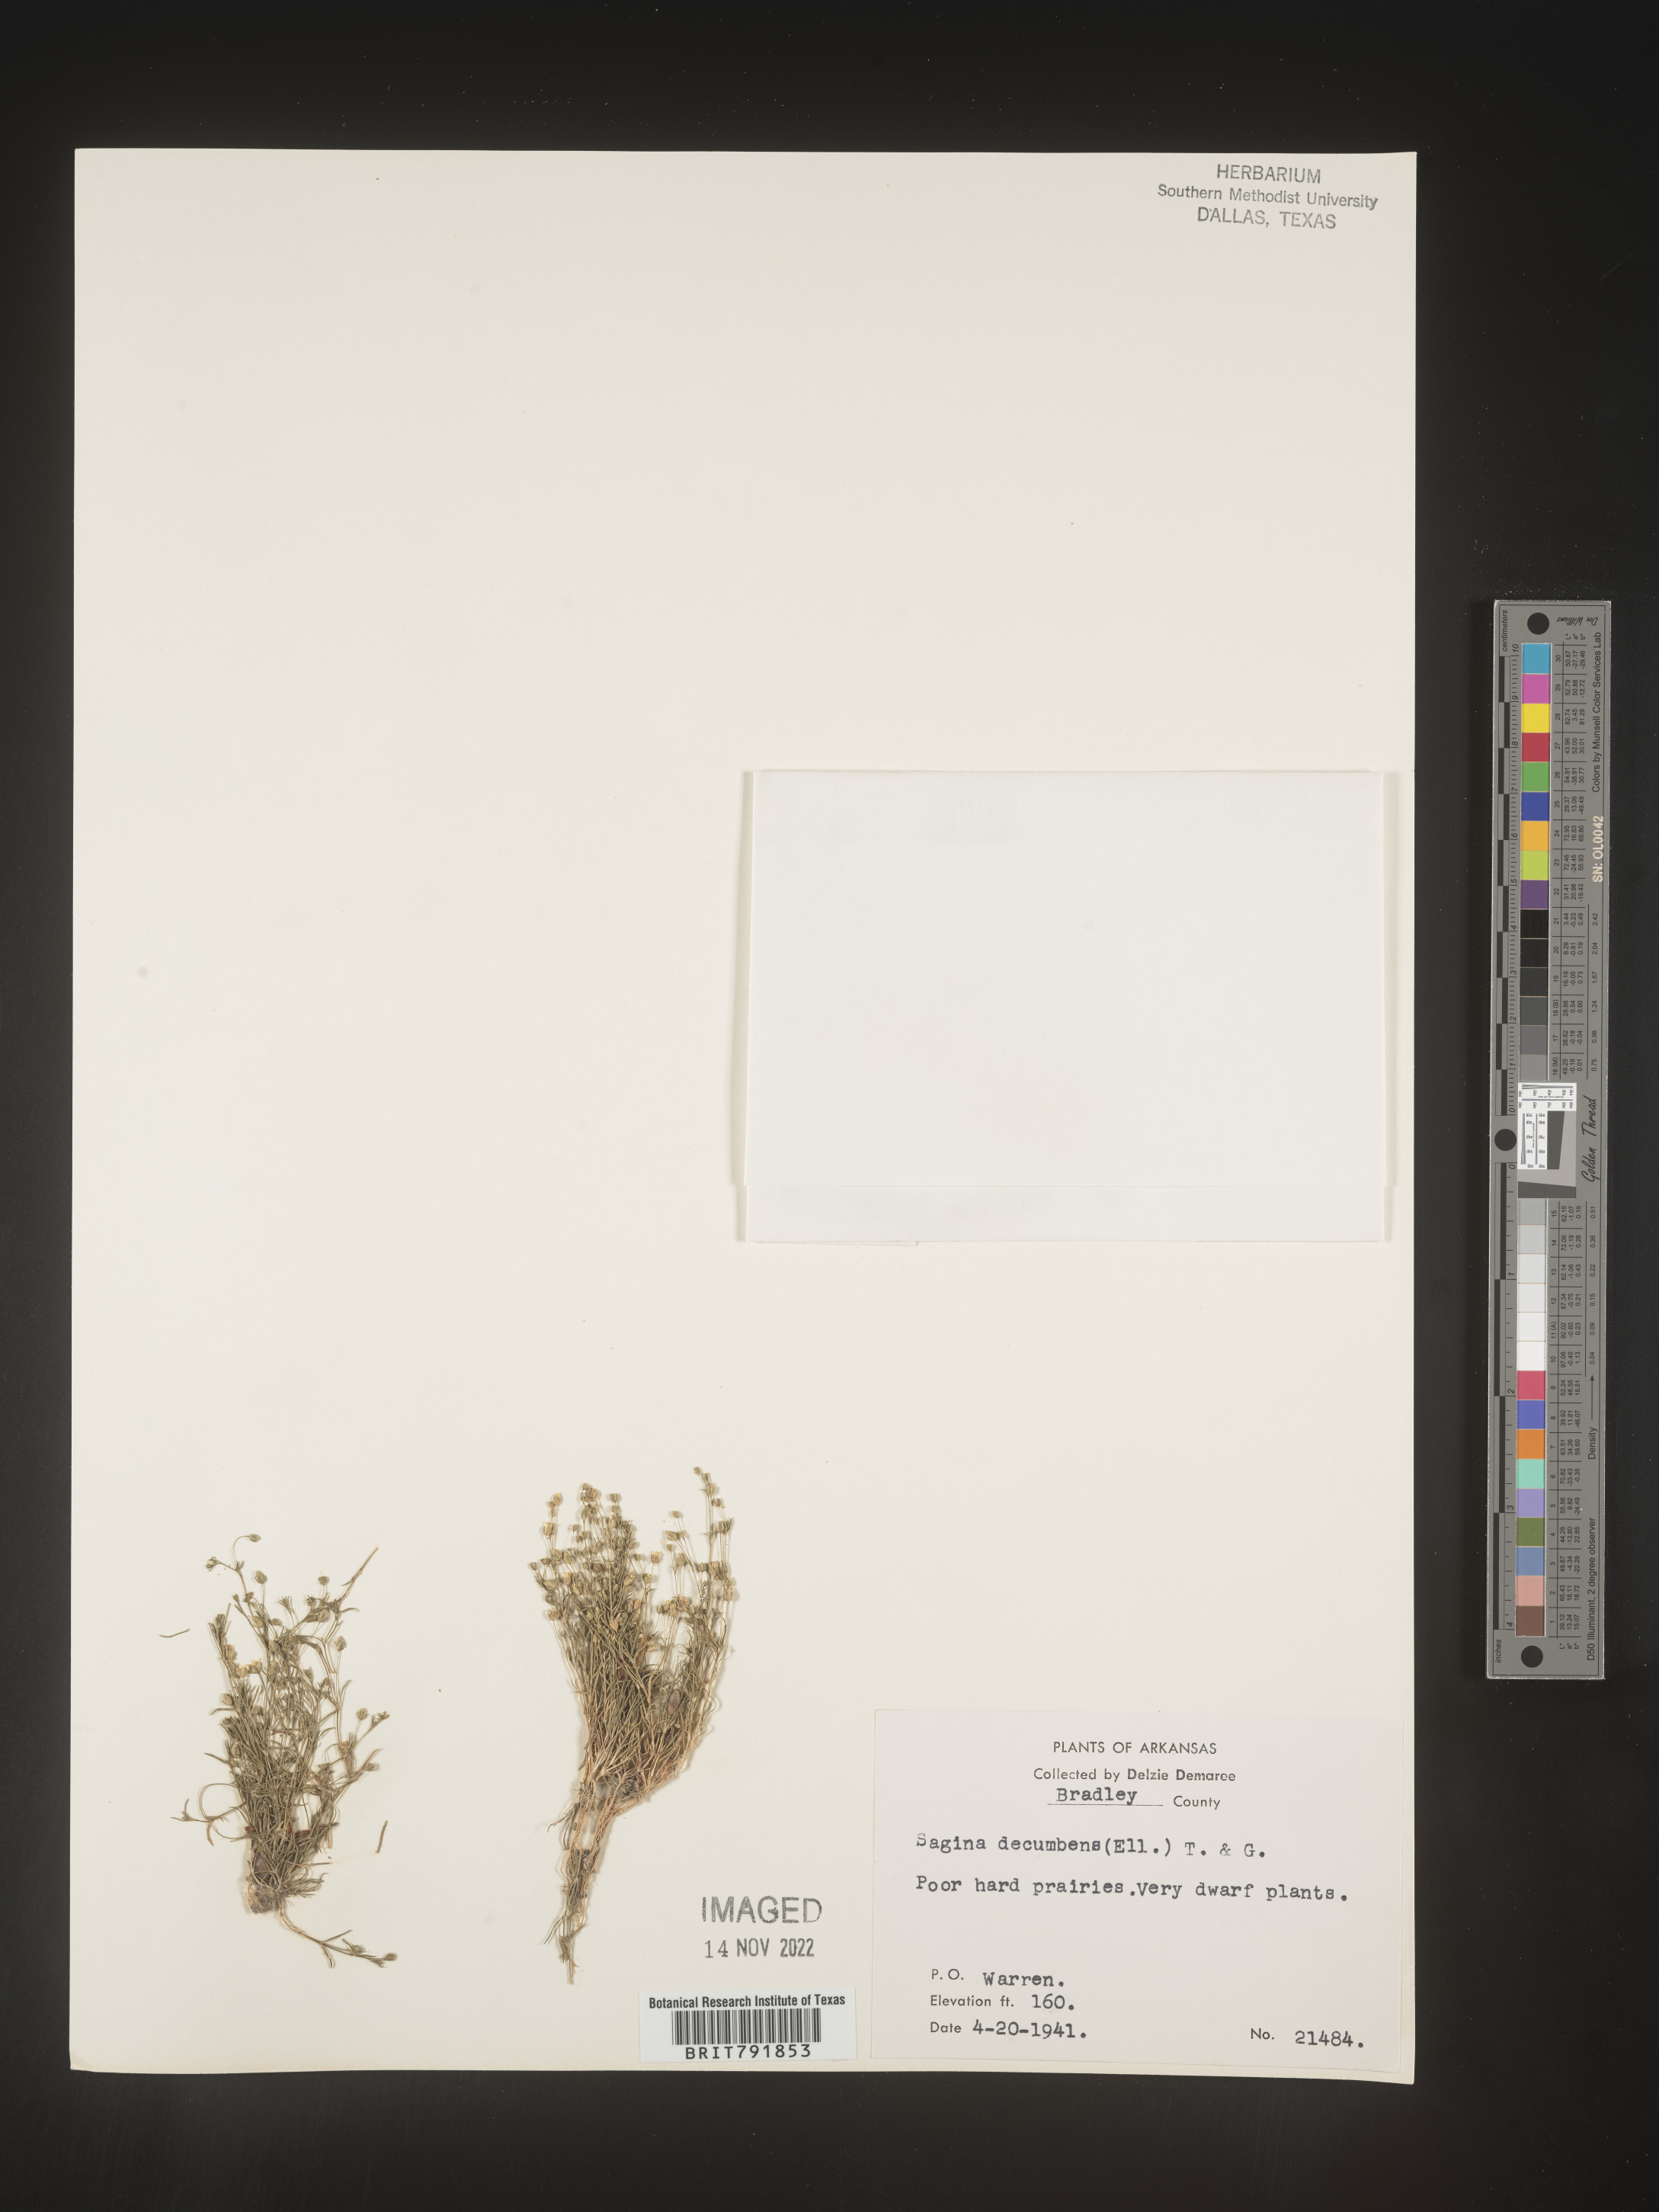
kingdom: Plantae
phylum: Tracheophyta
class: Magnoliopsida
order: Caryophyllales
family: Caryophyllaceae
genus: Sagina
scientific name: Sagina decumbens
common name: Decumbent pearlwort
